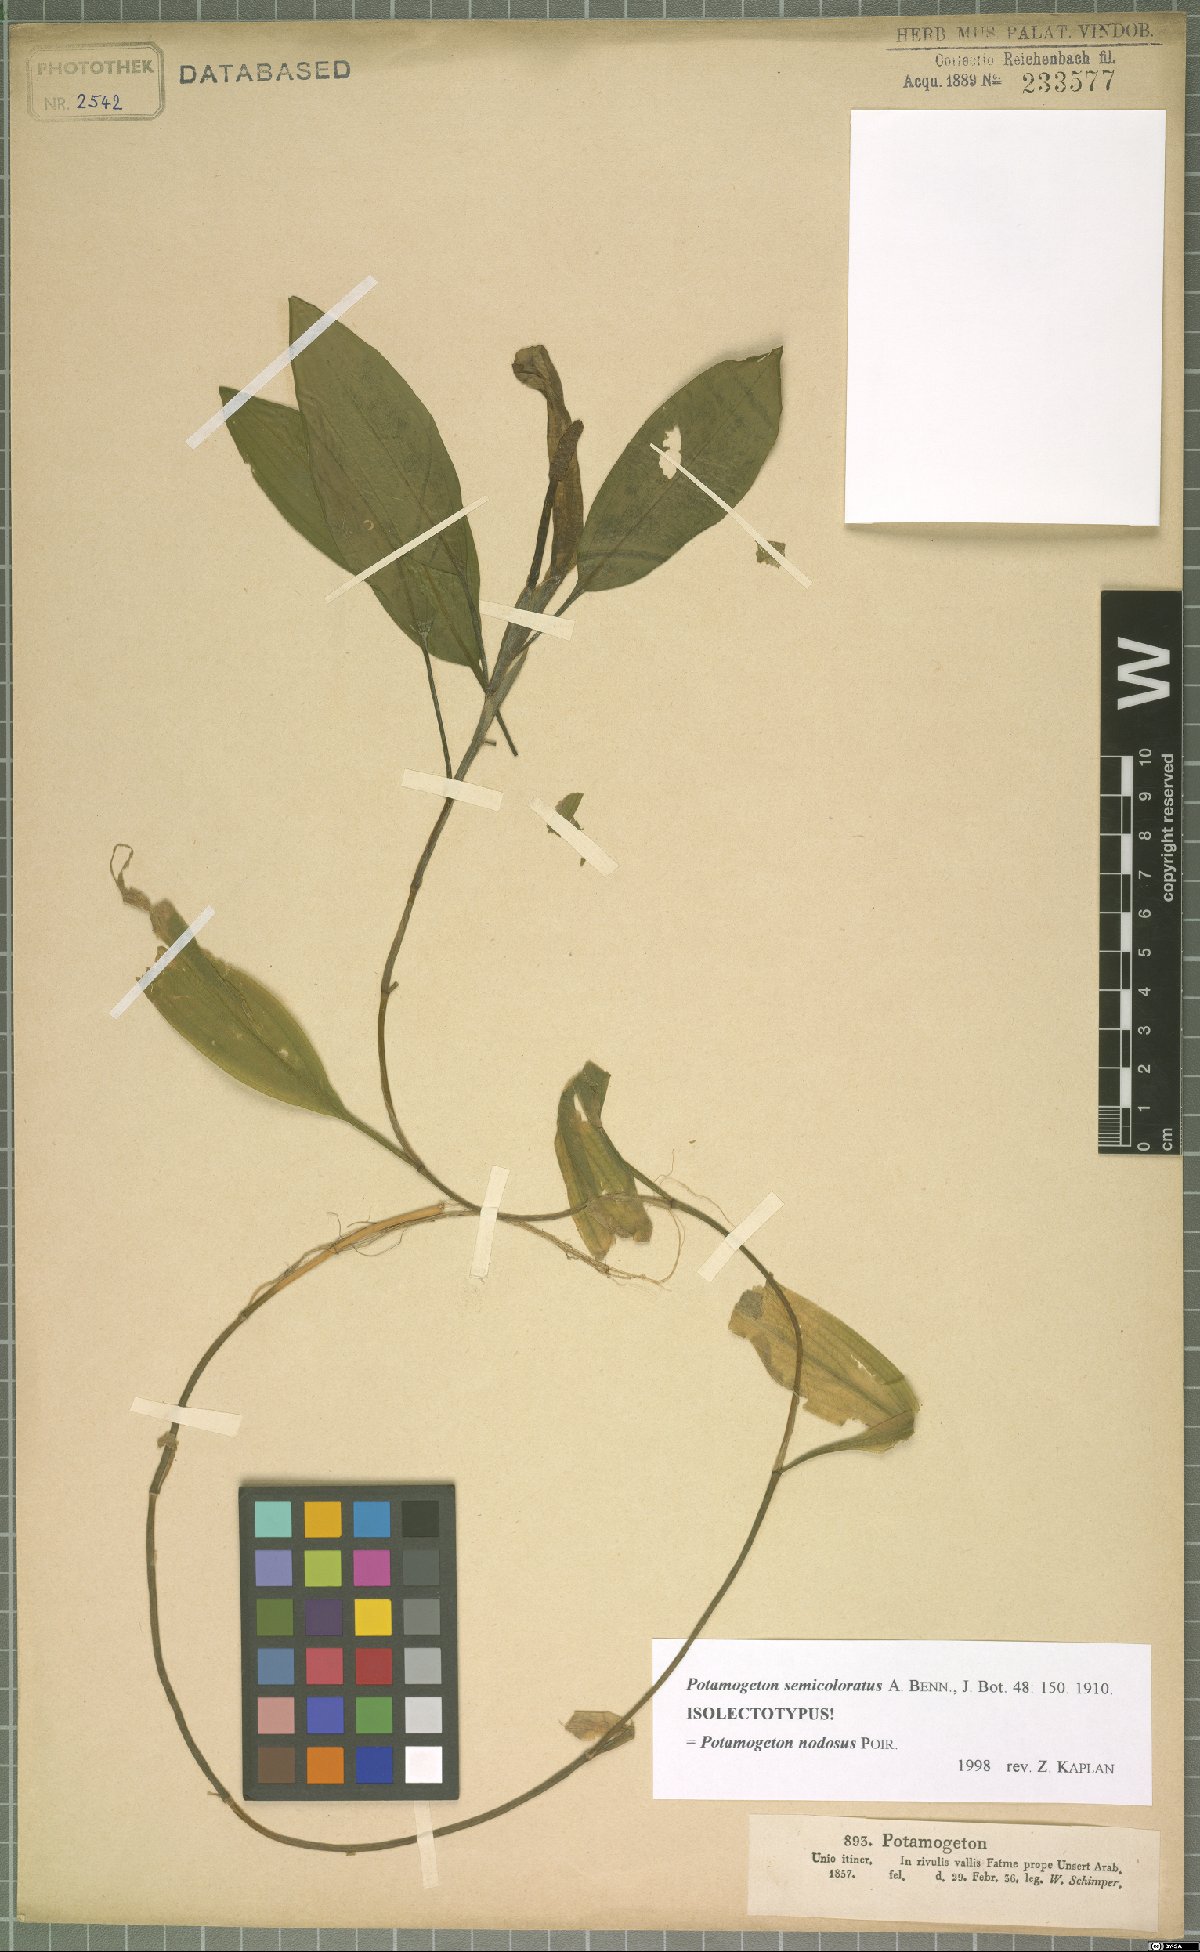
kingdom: Plantae
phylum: Tracheophyta
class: Liliopsida
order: Alismatales
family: Potamogetonaceae
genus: Potamogeton
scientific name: Potamogeton nodosus
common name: Loddon pondweed
